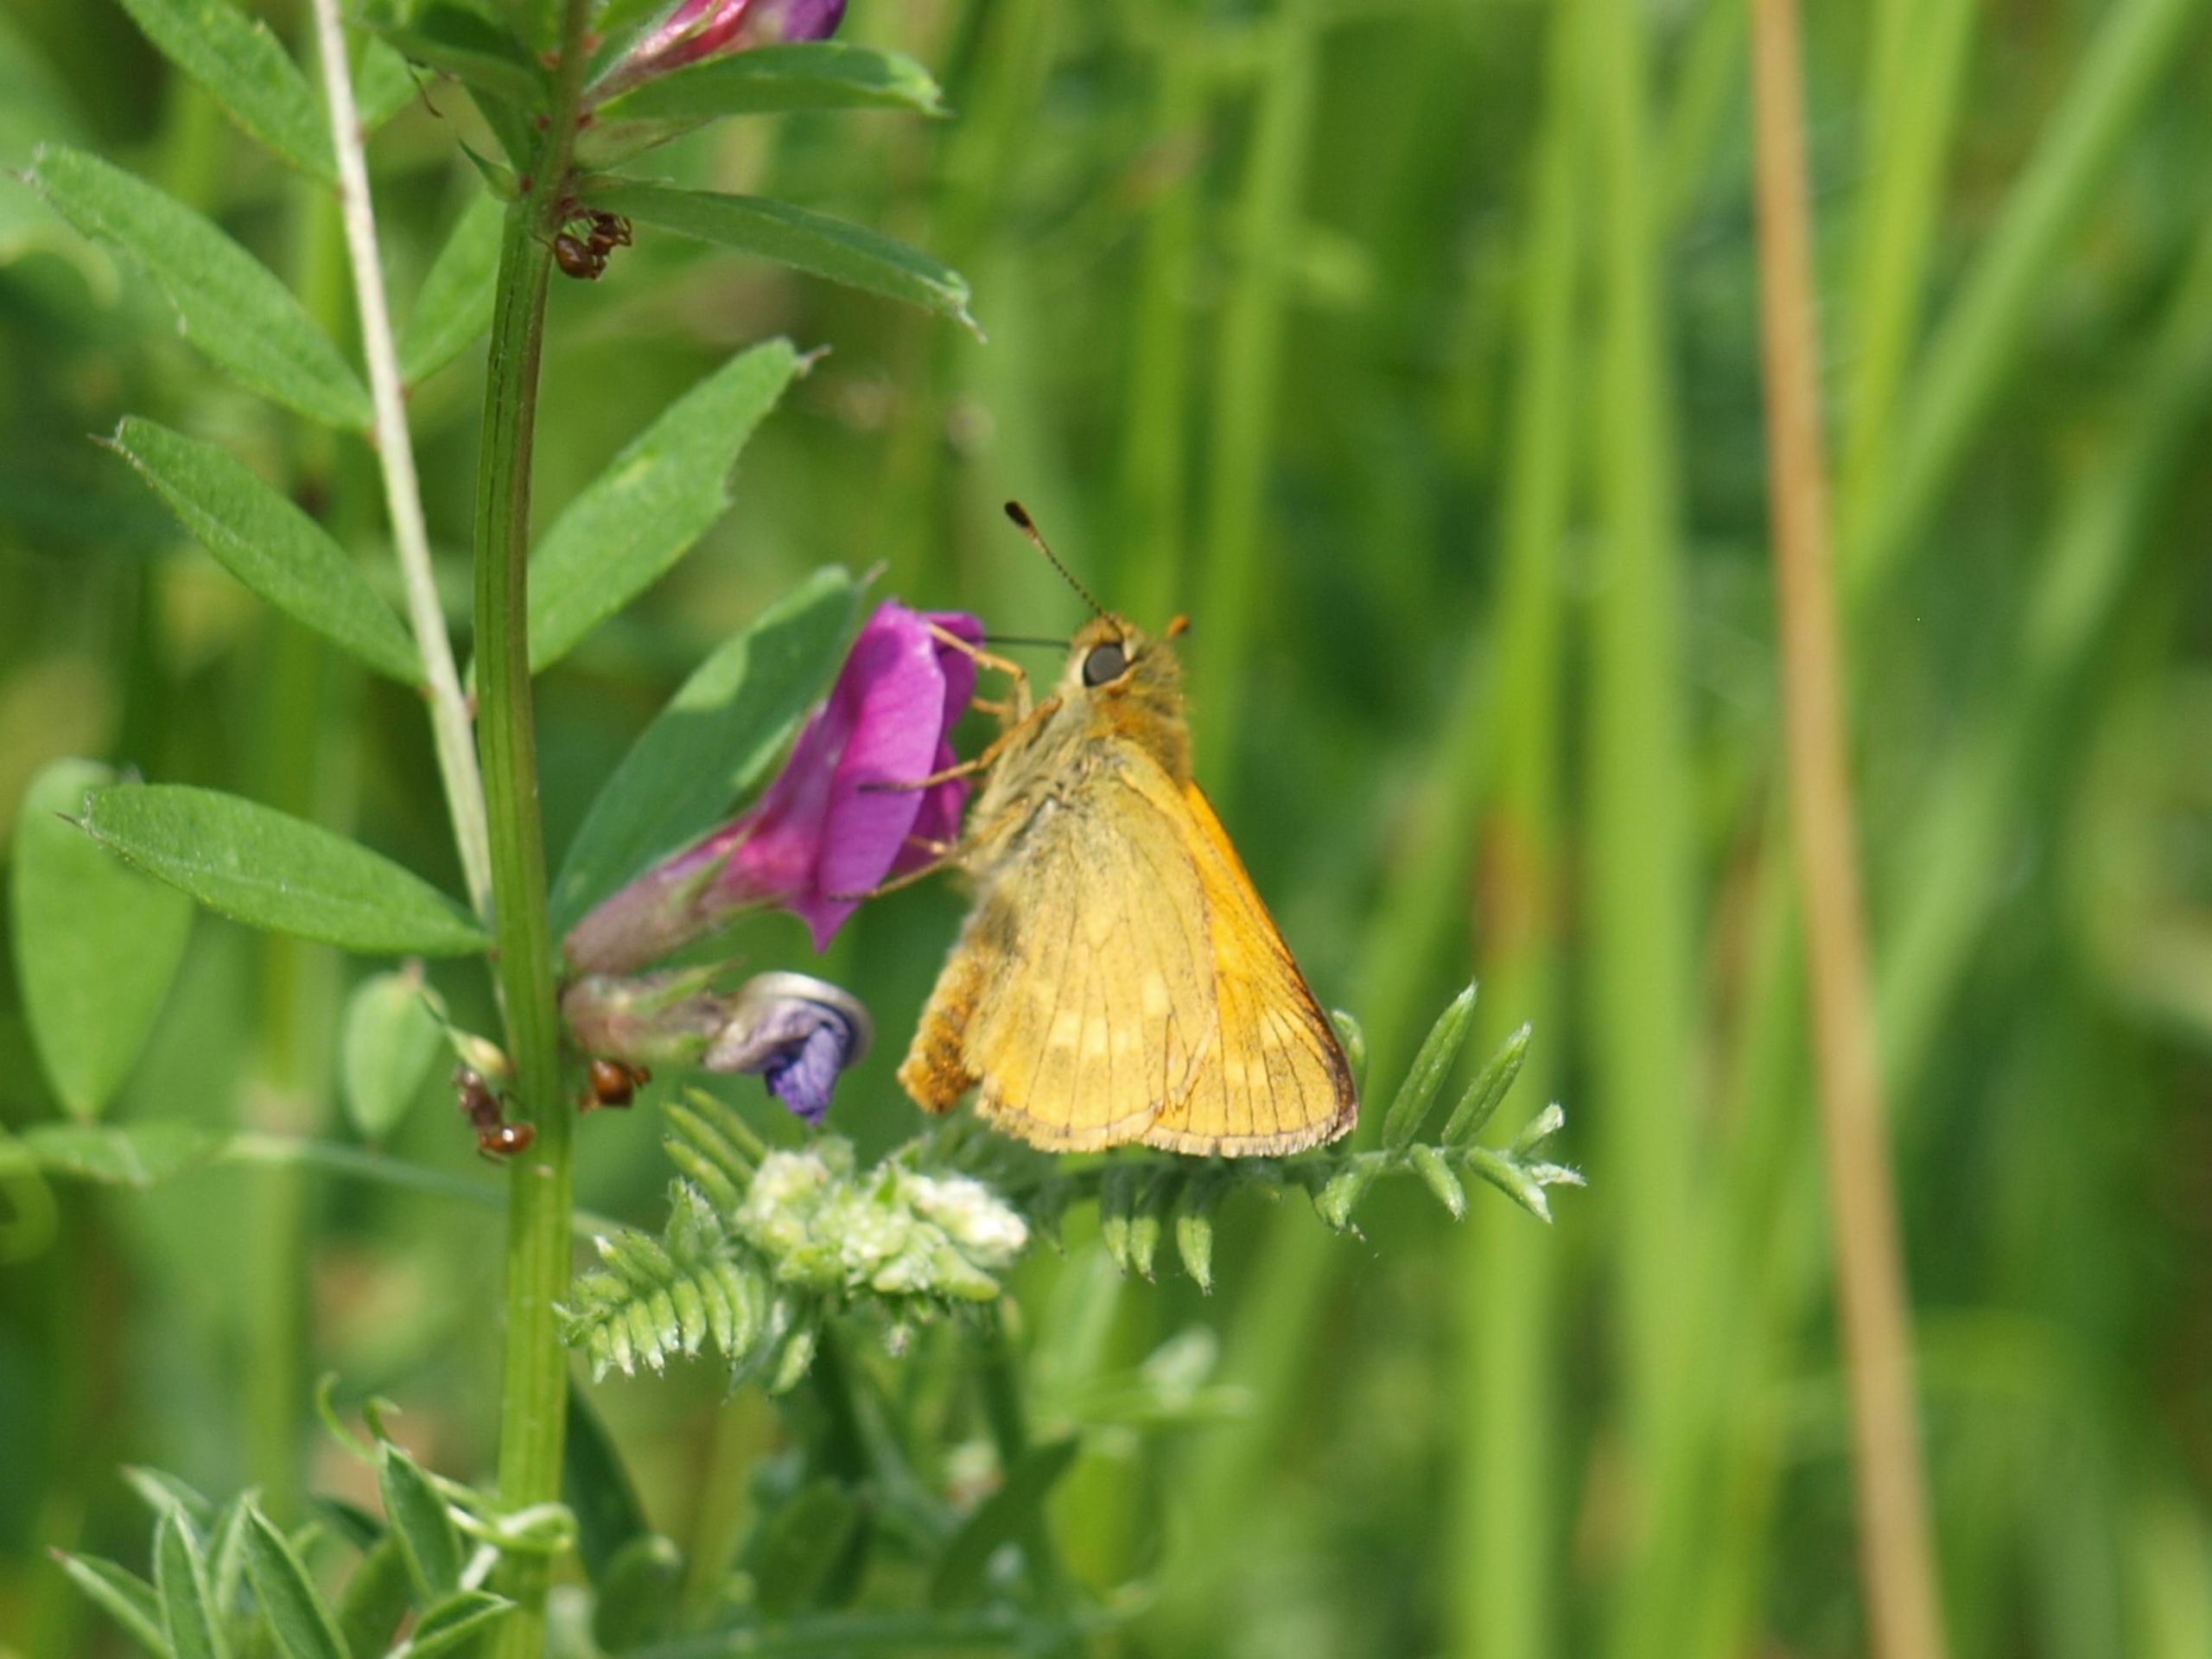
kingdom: Animalia
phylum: Arthropoda
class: Insecta
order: Lepidoptera
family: Hesperiidae
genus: Ochlodes
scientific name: Ochlodes venata
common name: Stor bredpande
